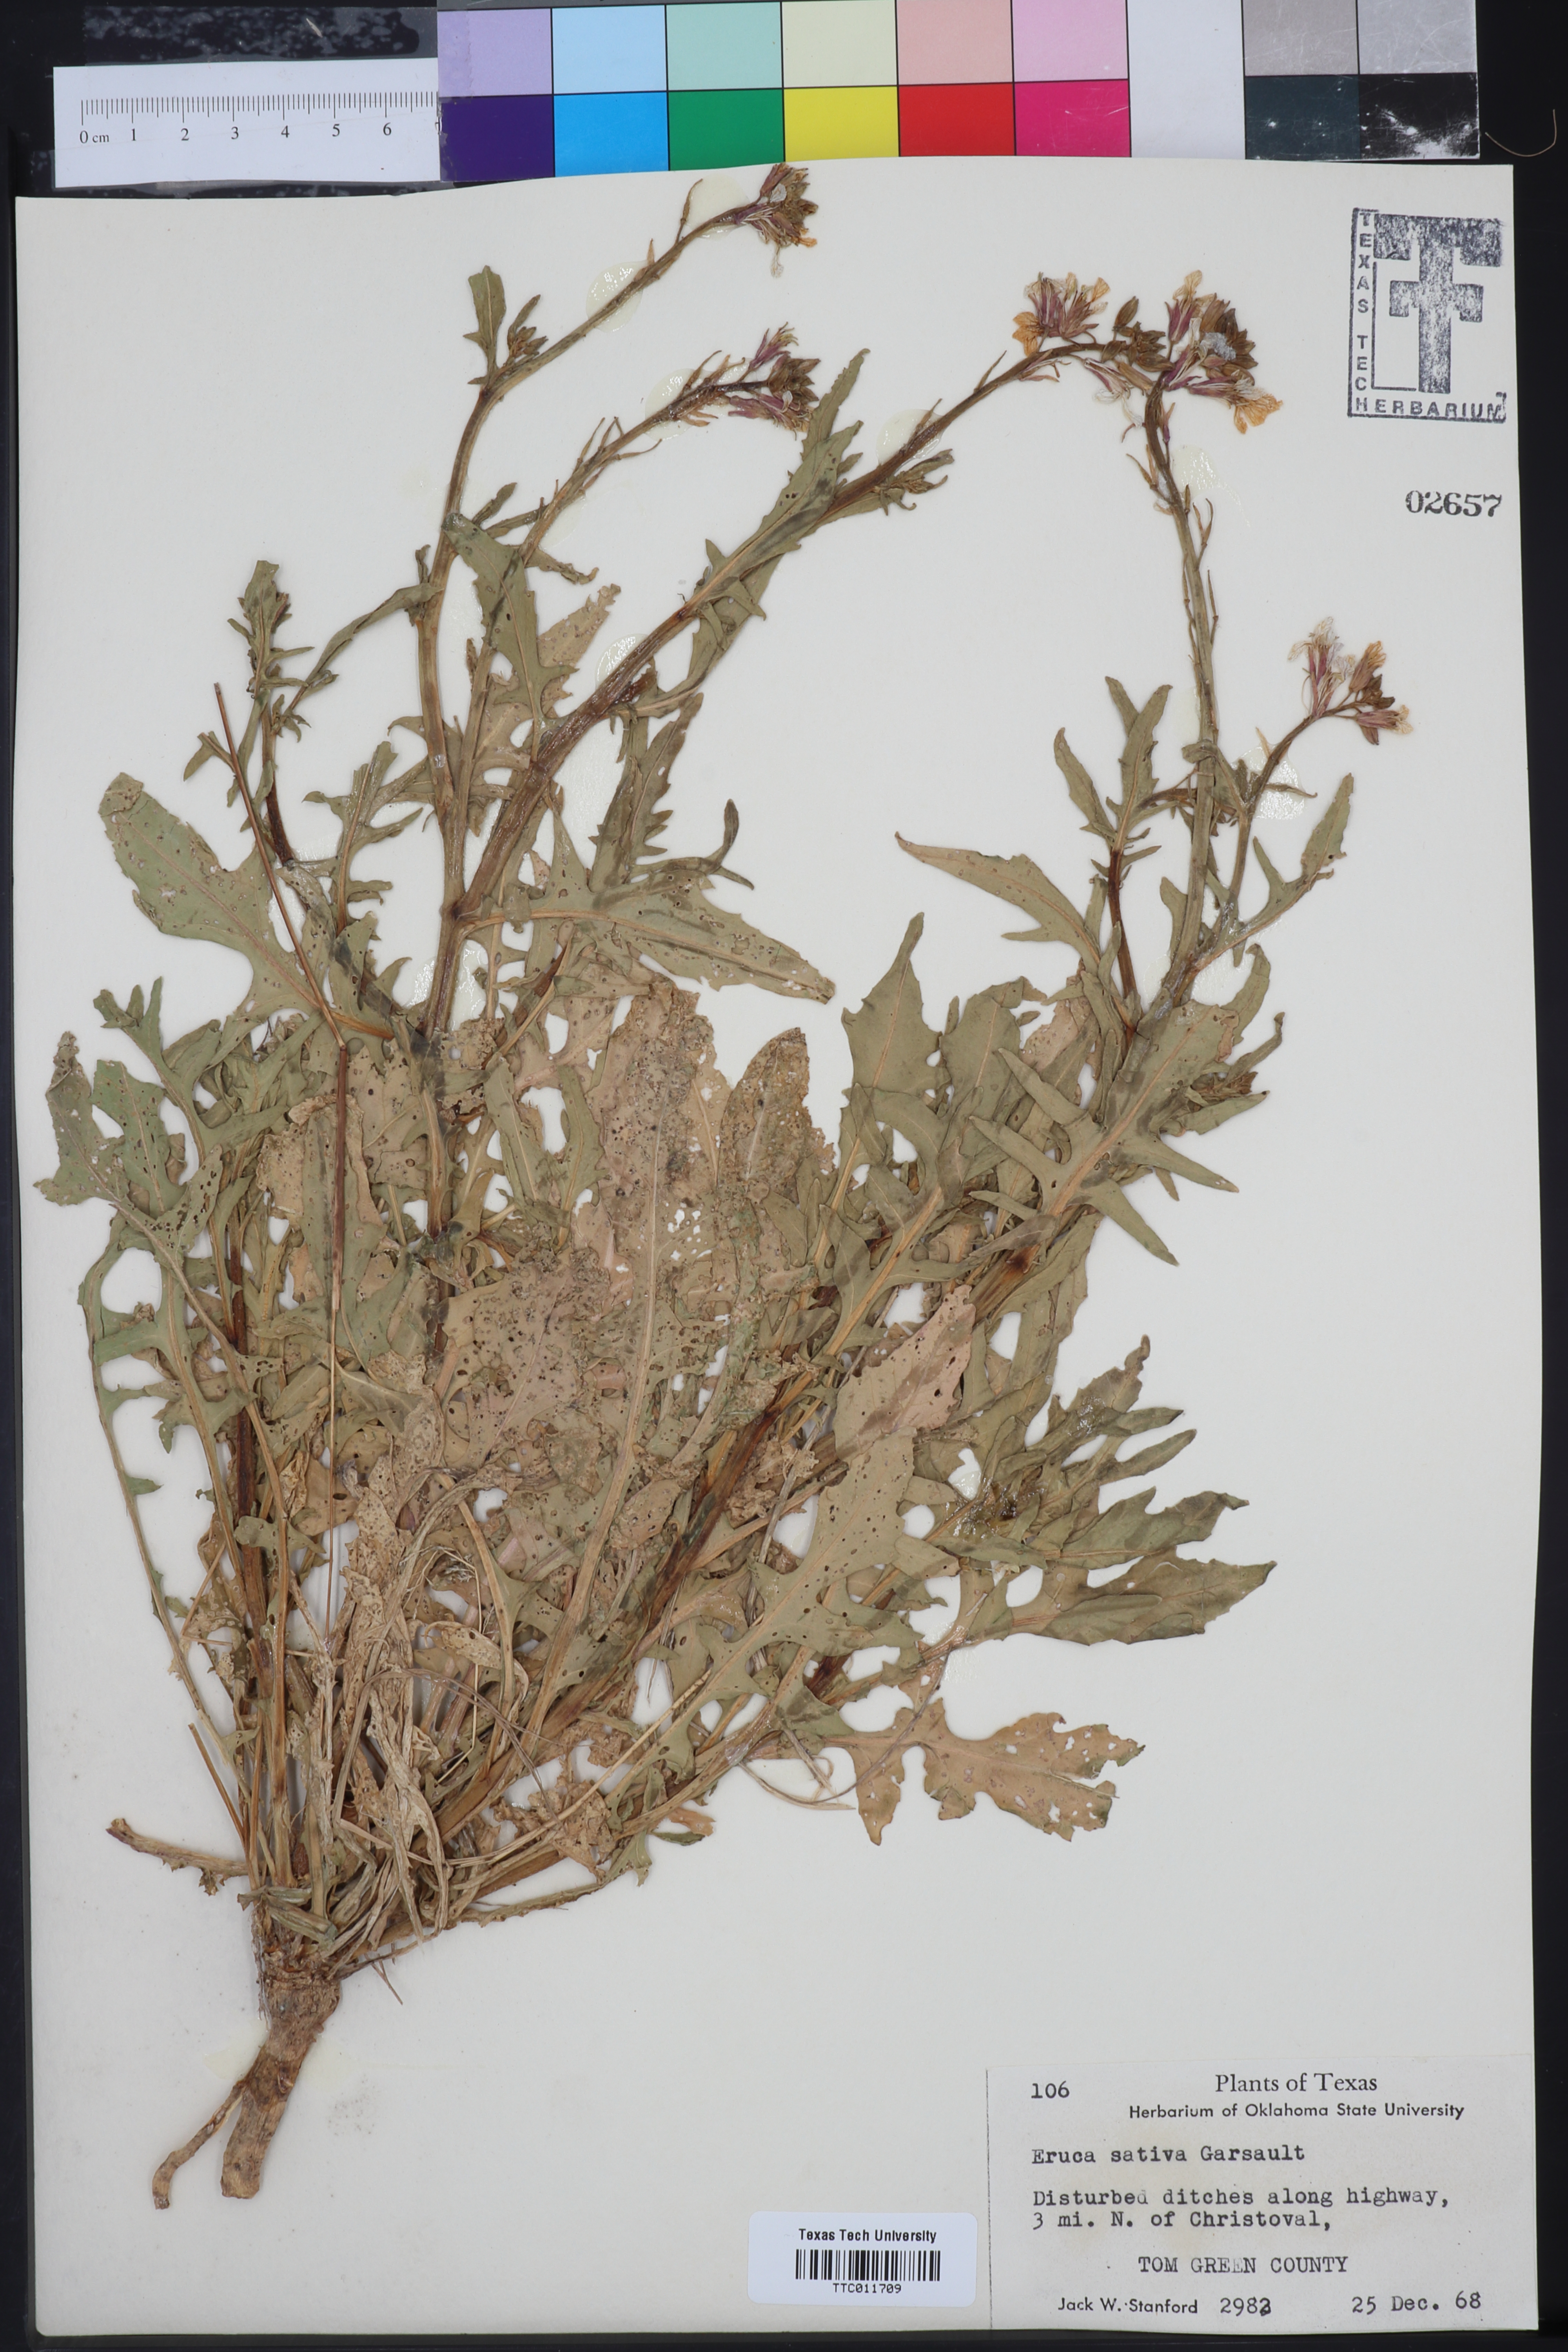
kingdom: Plantae
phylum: Tracheophyta
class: Magnoliopsida
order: Brassicales
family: Brassicaceae
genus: Eruca
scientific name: Eruca vesicaria
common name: Garden rocket
